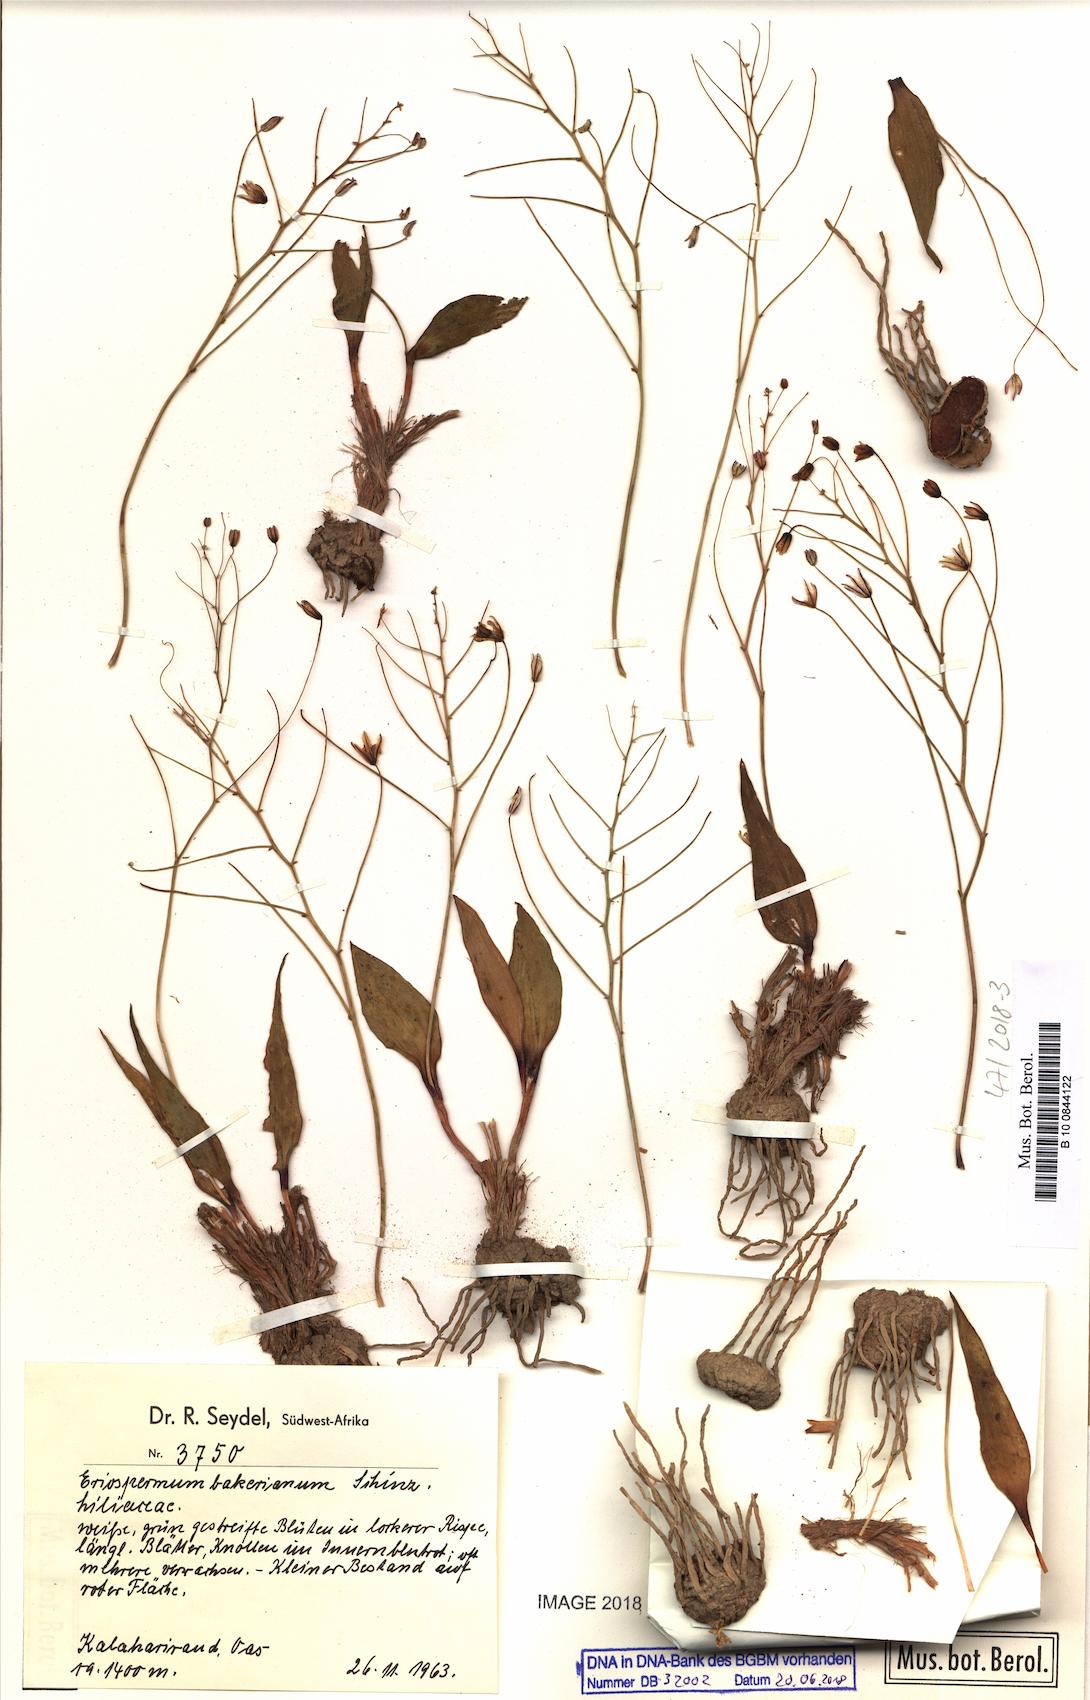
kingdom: Plantae
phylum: Tracheophyta
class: Liliopsida
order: Asparagales
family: Asparagaceae
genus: Eriospermum
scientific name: Eriospermum bakerianum
